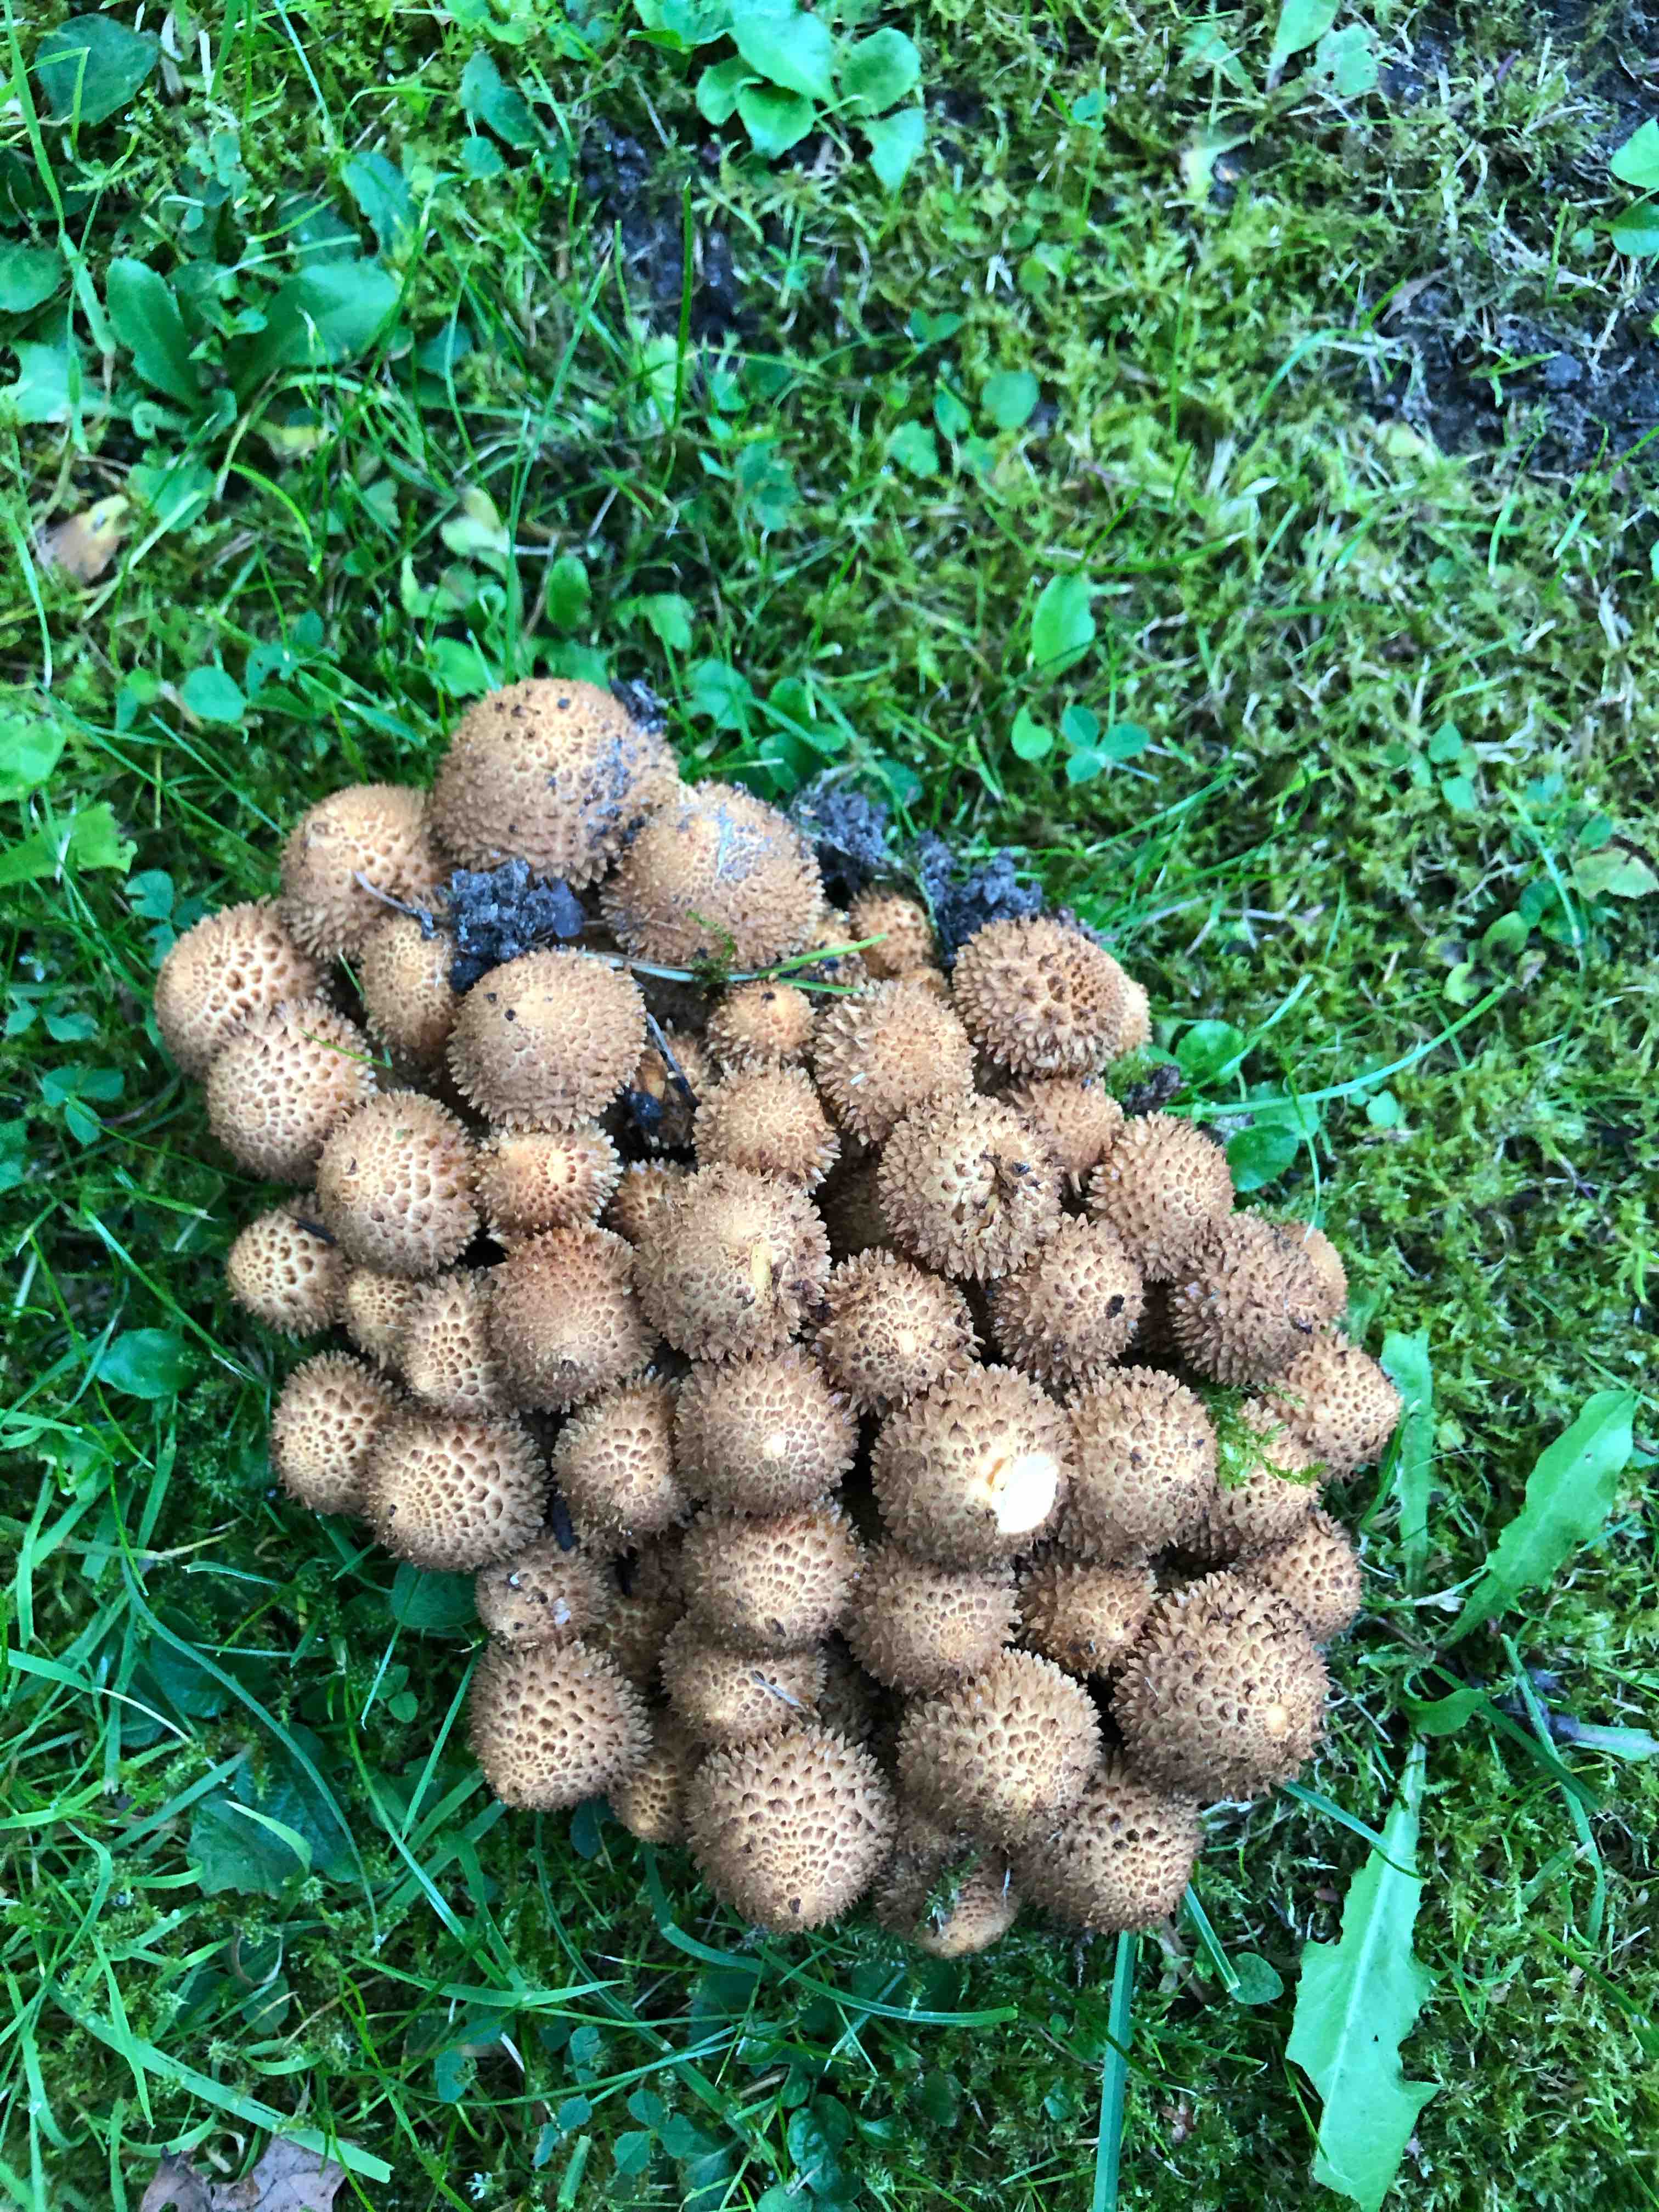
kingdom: Fungi
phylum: Basidiomycota
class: Agaricomycetes
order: Agaricales
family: Strophariaceae
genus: Pholiota
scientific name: Pholiota squarrosa
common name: krumskællet skælhat
